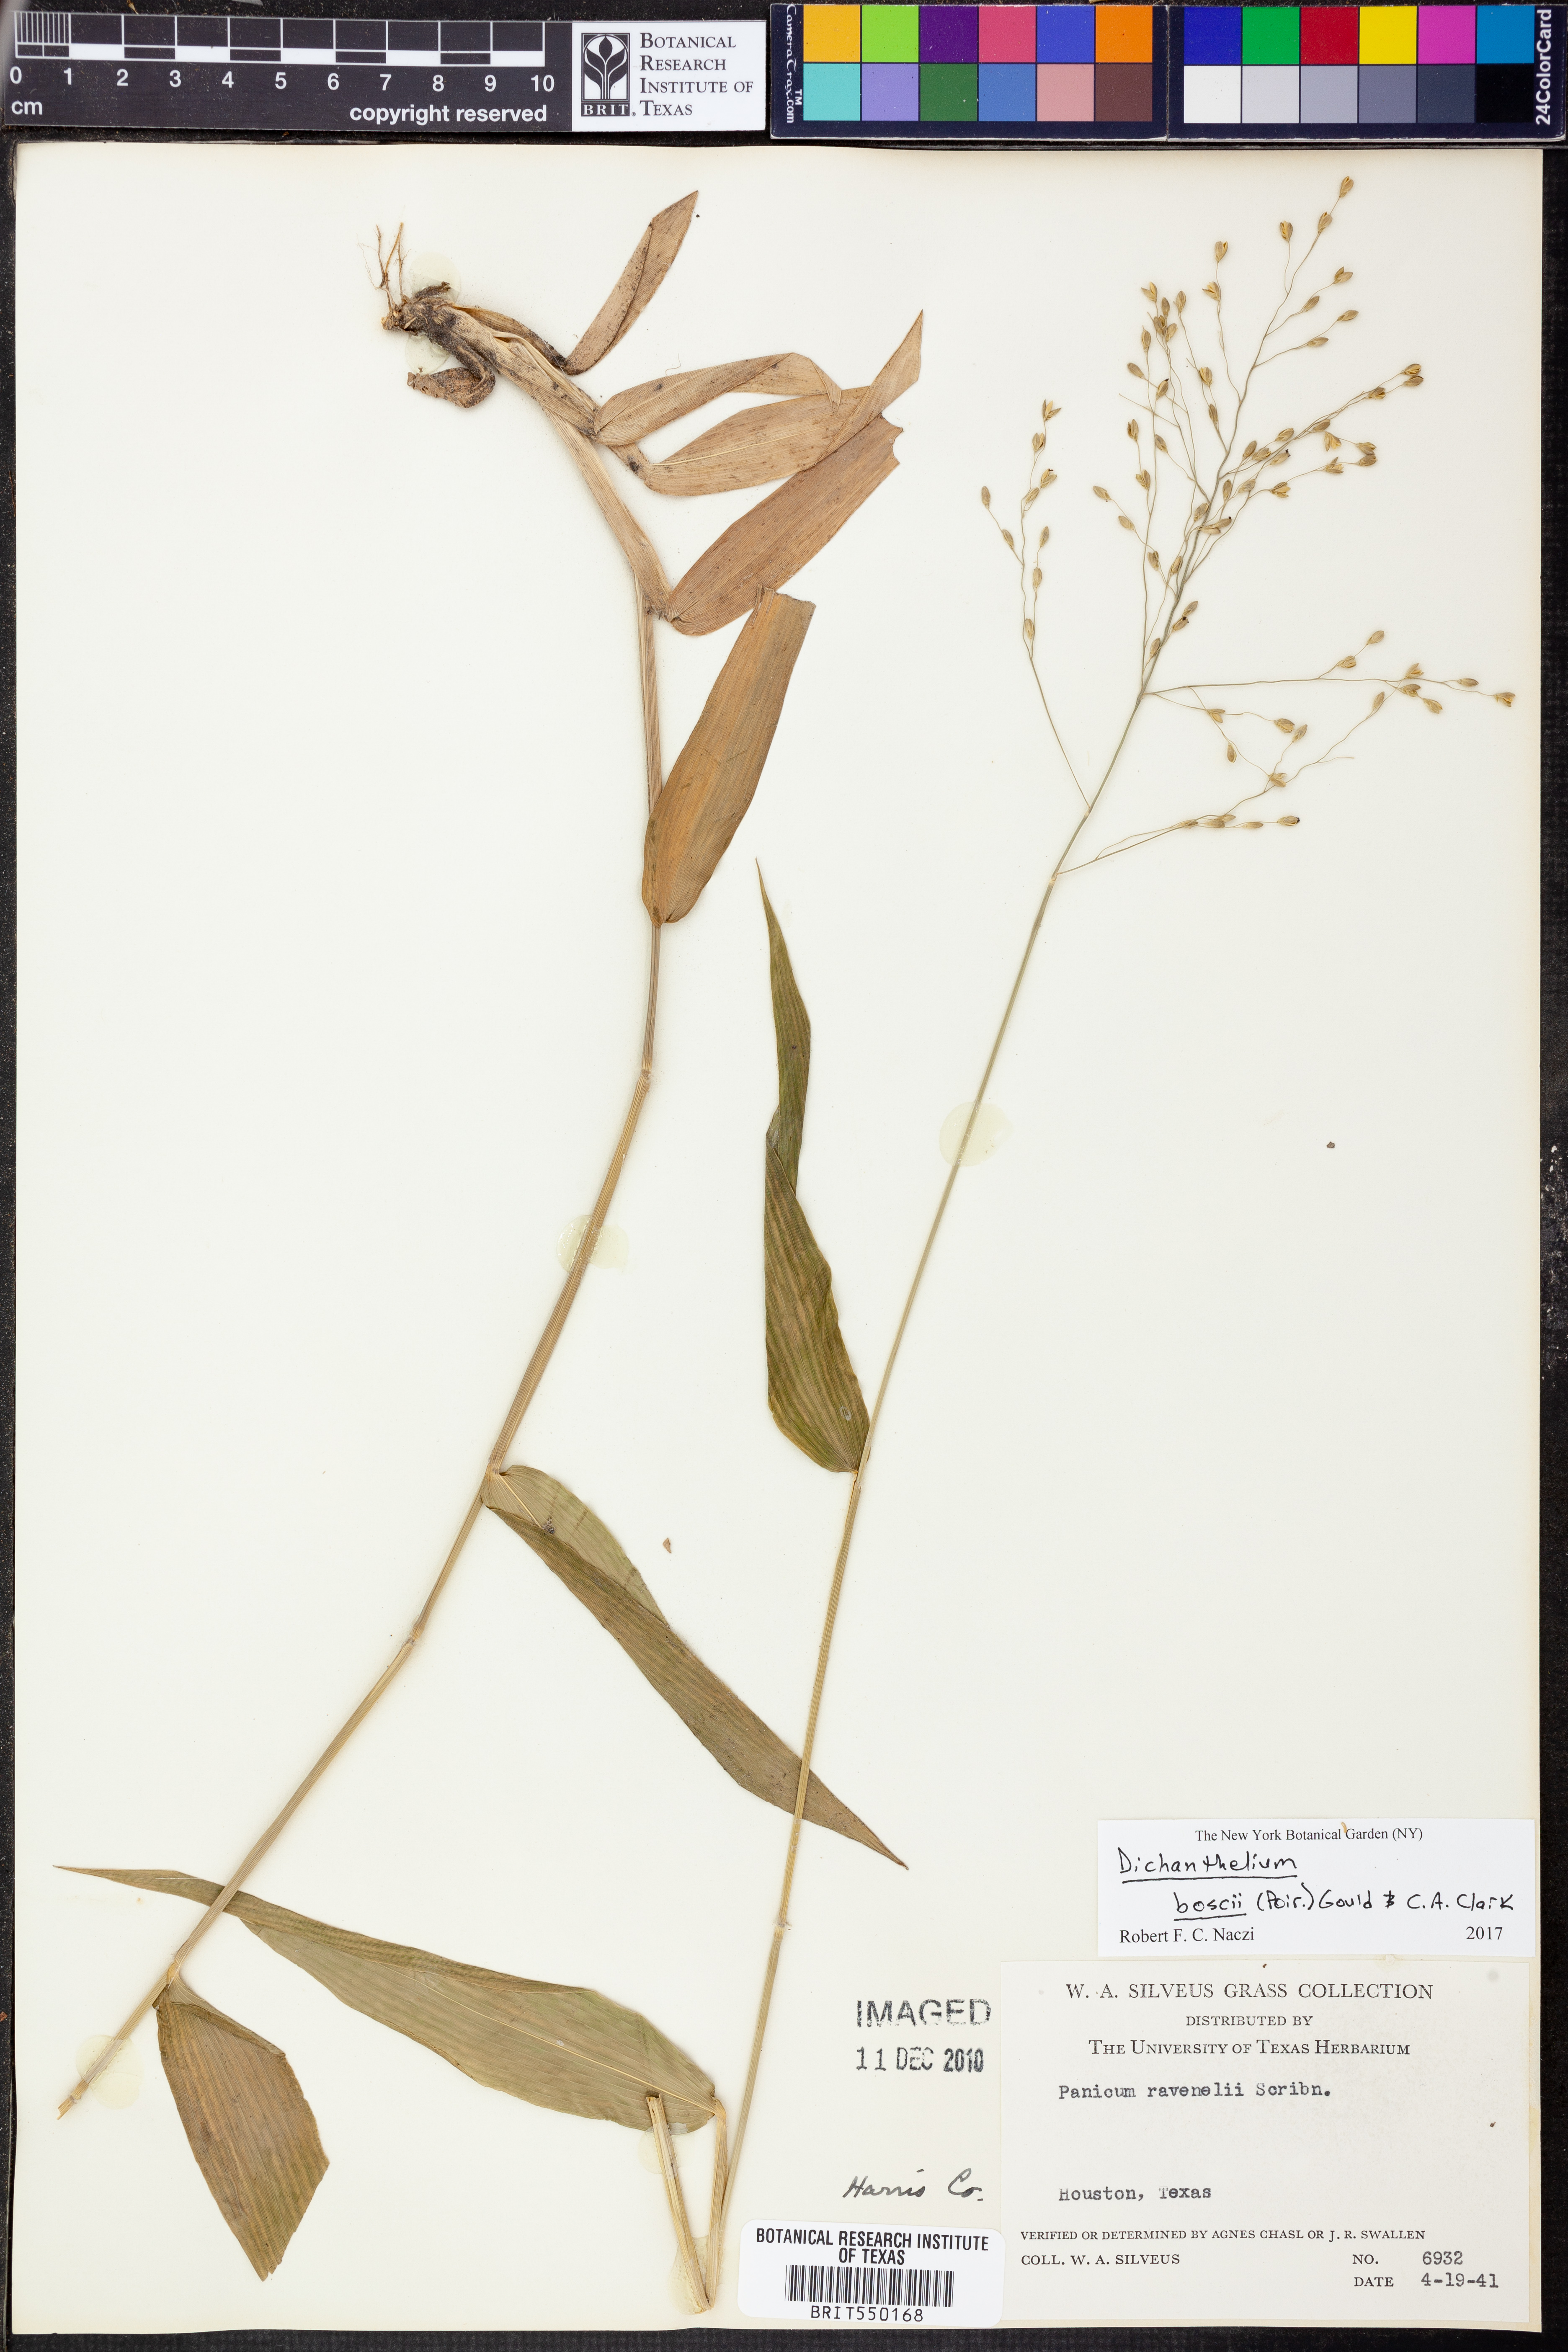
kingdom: Plantae
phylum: Tracheophyta
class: Liliopsida
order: Poales
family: Poaceae
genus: Dichanthelium
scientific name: Dichanthelium boscii
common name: Bosc's panic grass
